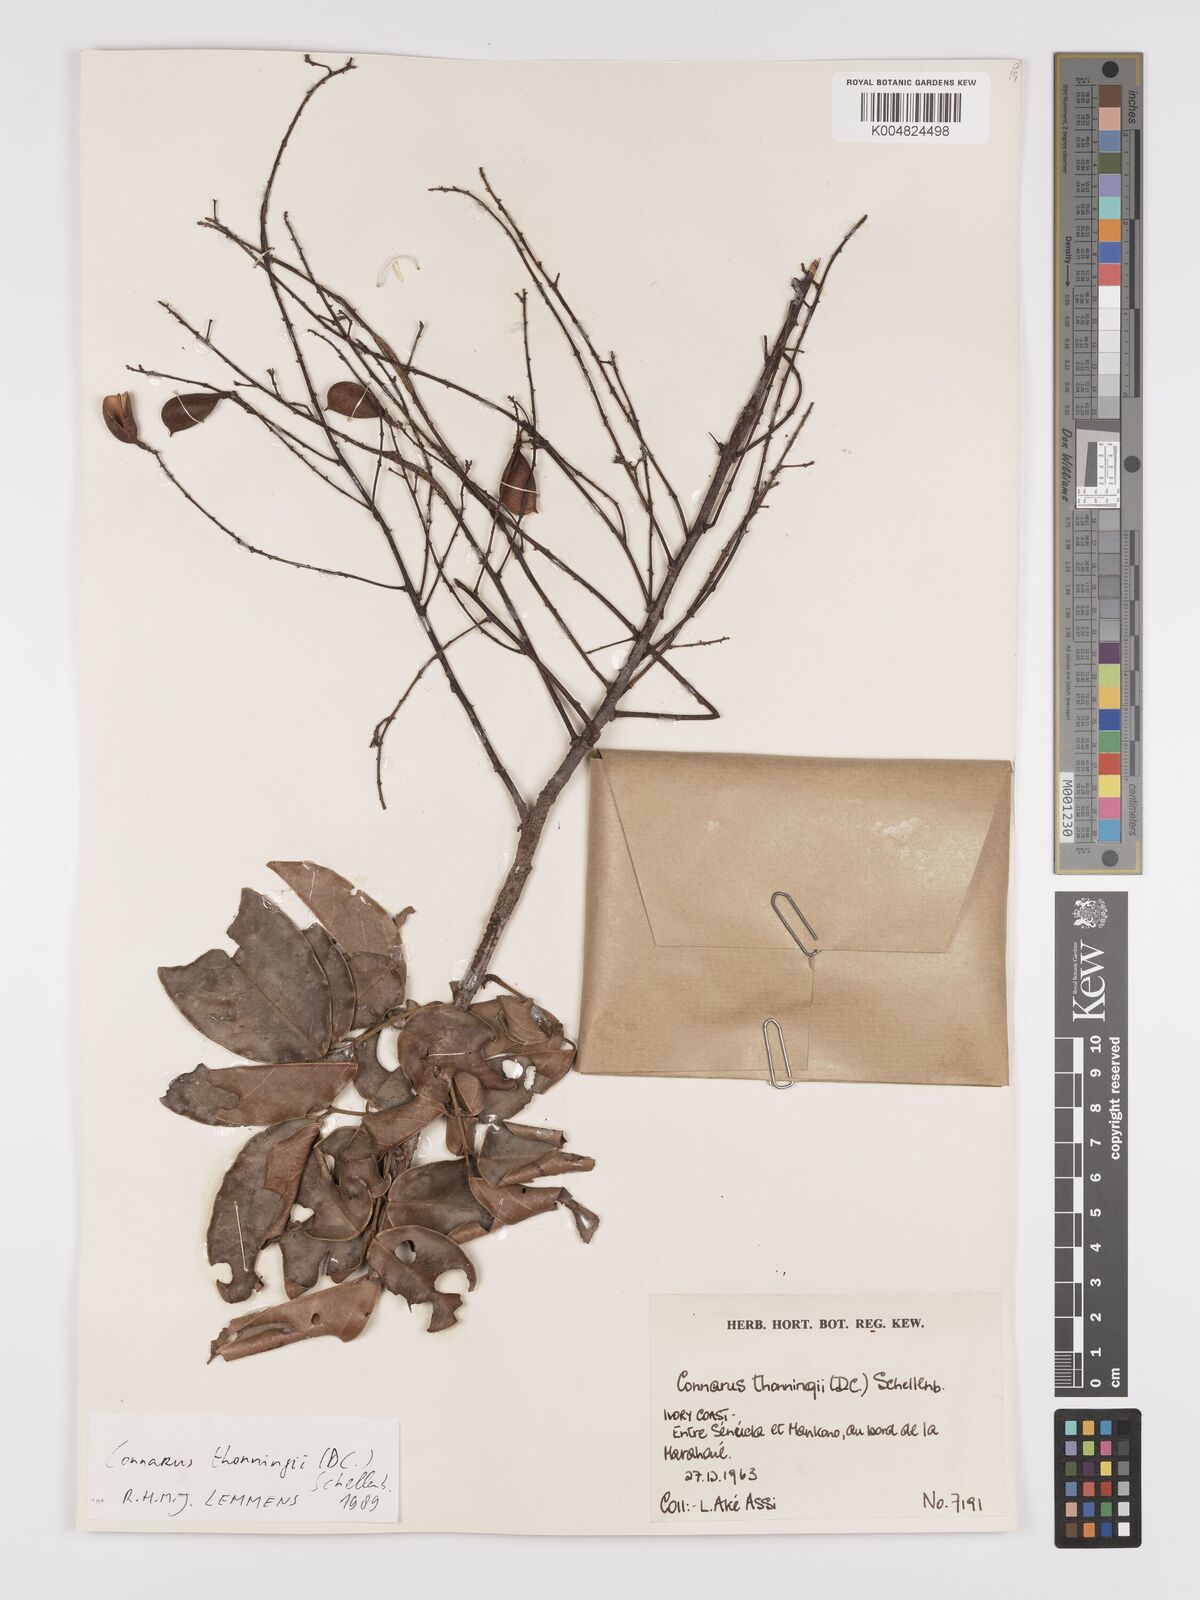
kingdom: Plantae
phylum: Tracheophyta
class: Magnoliopsida
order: Oxalidales
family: Connaraceae
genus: Connarus
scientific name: Connarus thonningii
